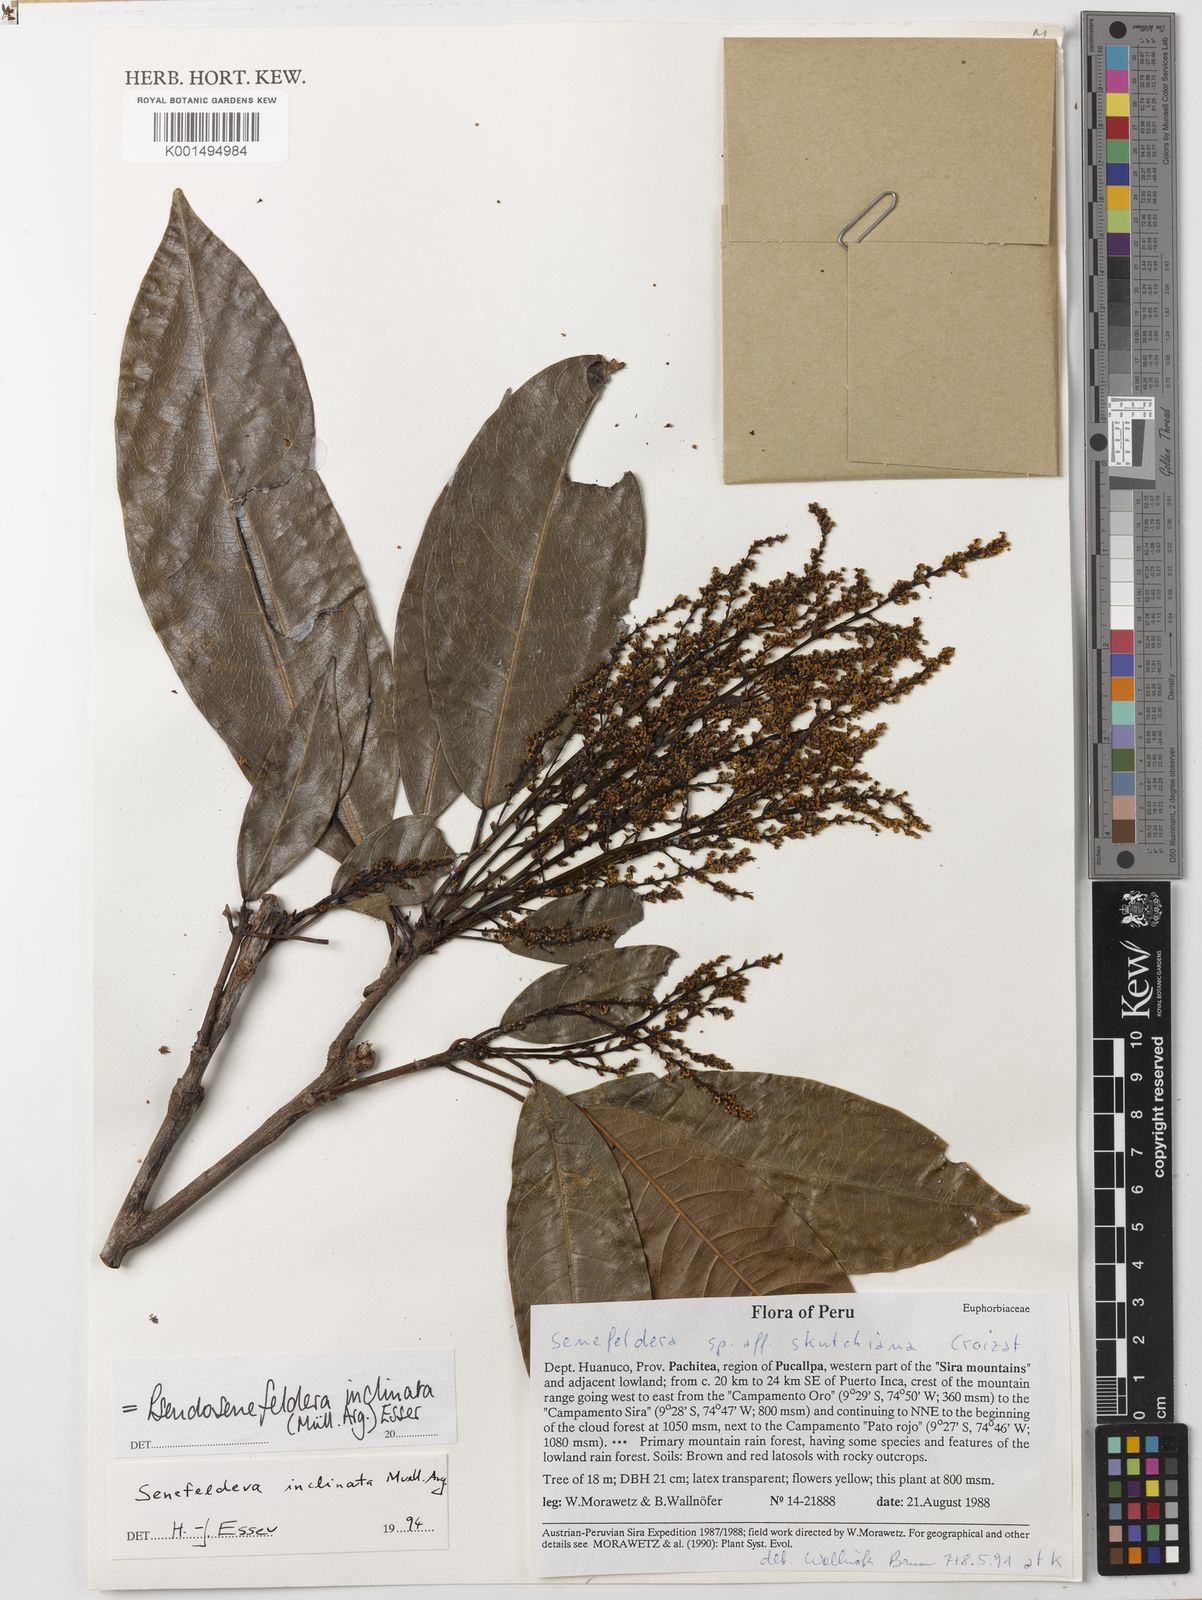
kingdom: Plantae
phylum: Tracheophyta
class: Magnoliopsida
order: Malpighiales
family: Euphorbiaceae
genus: Pseudosenefeldera
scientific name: Pseudosenefeldera inclinata
